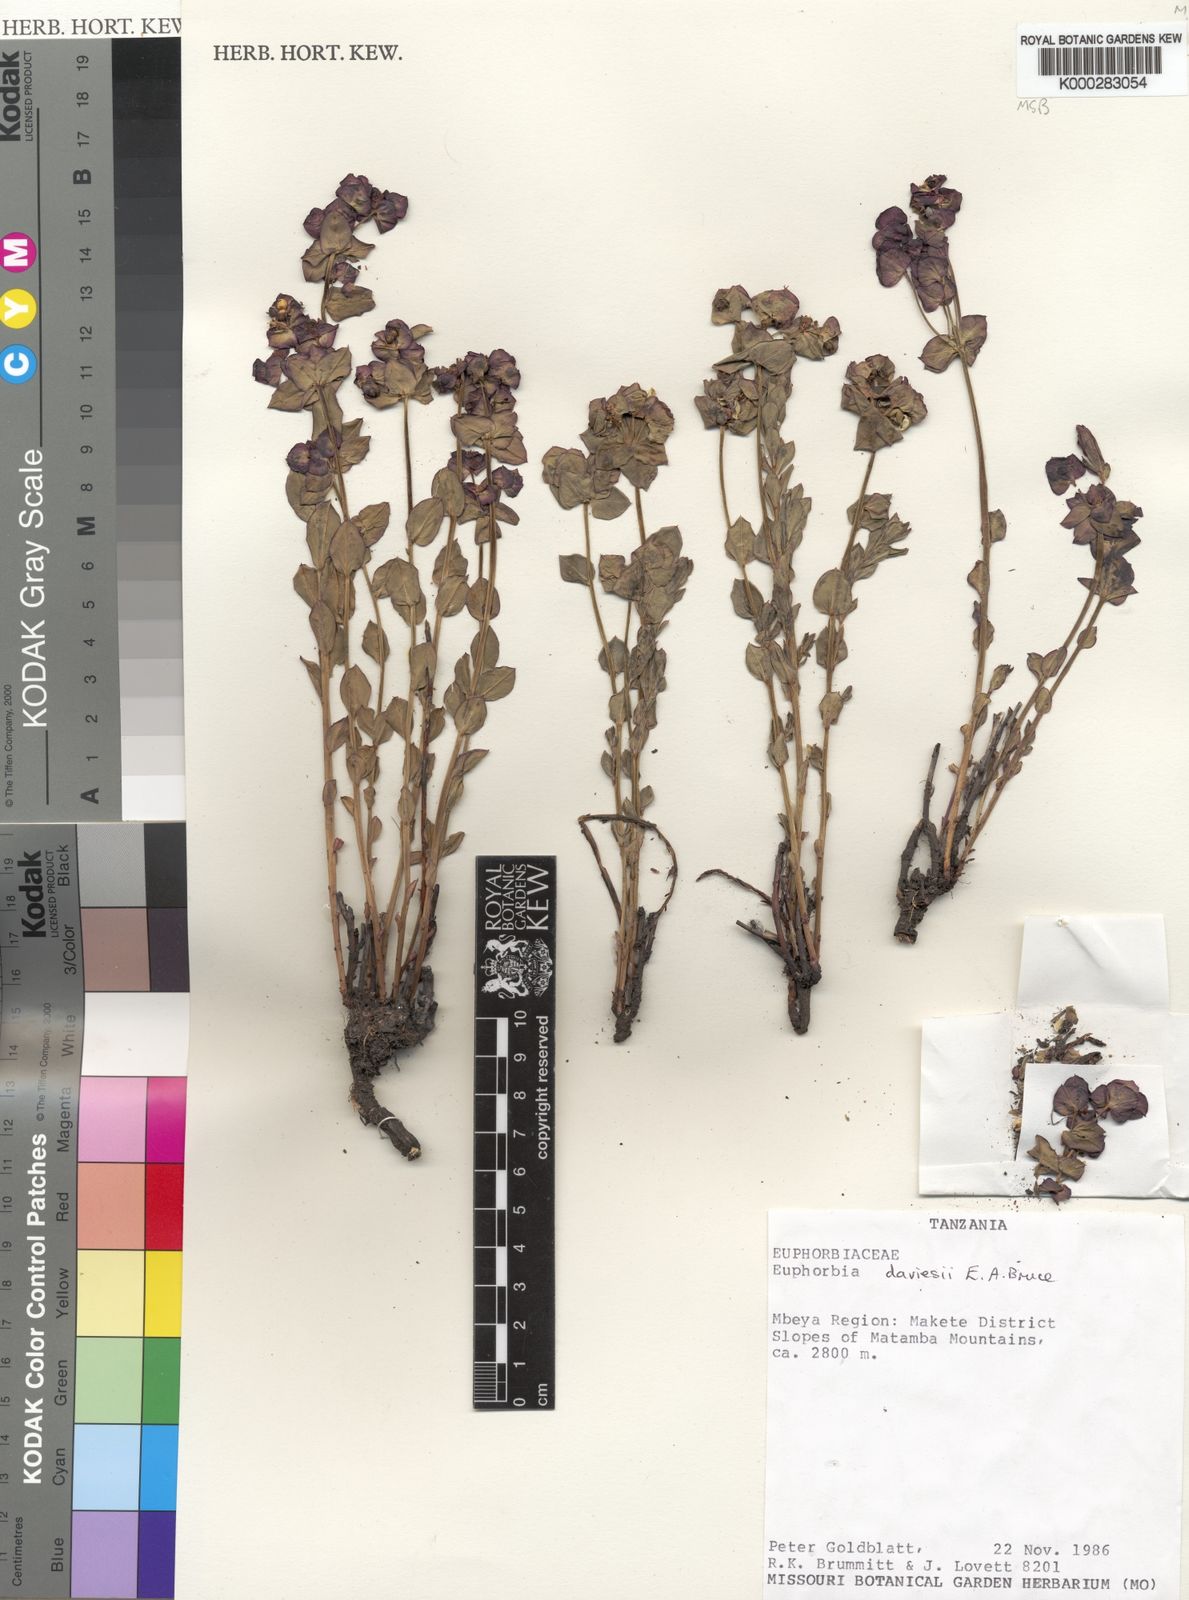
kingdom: Plantae
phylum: Tracheophyta
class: Magnoliopsida
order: Malpighiales
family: Euphorbiaceae
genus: Euphorbia
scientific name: Euphorbia daviesii
